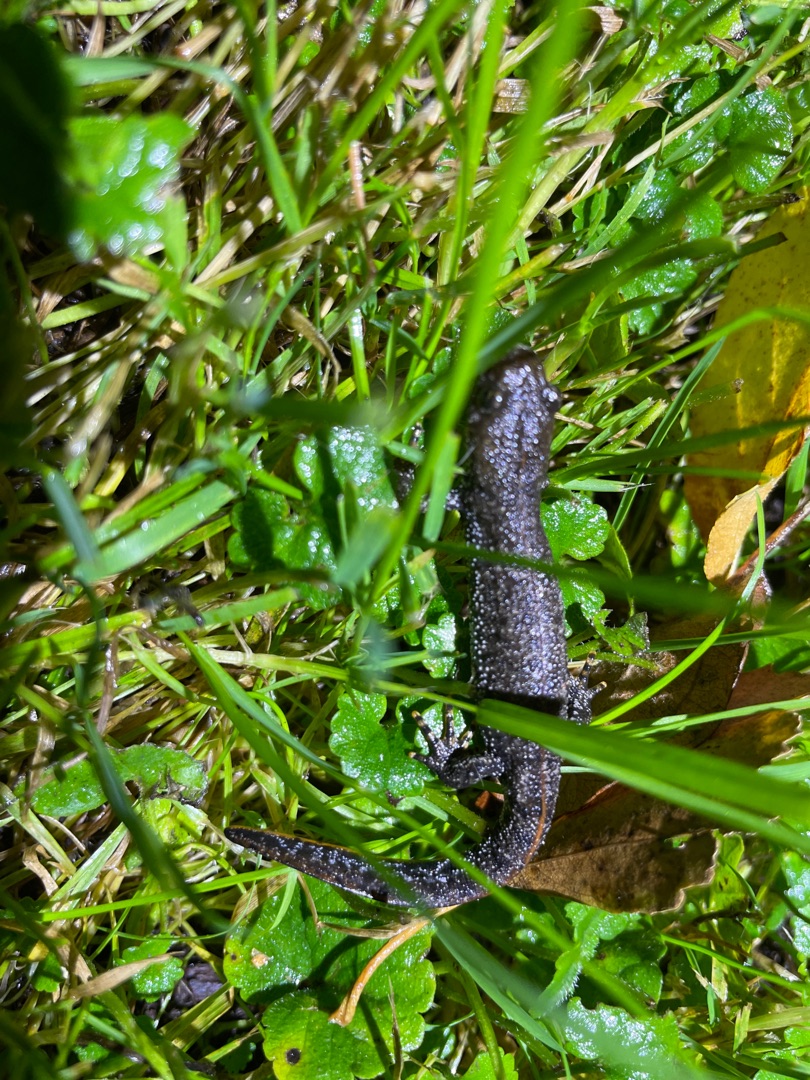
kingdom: Animalia
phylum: Chordata
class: Amphibia
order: Caudata
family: Salamandridae
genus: Triturus
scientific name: Triturus cristatus
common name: Stor vandsalamander
